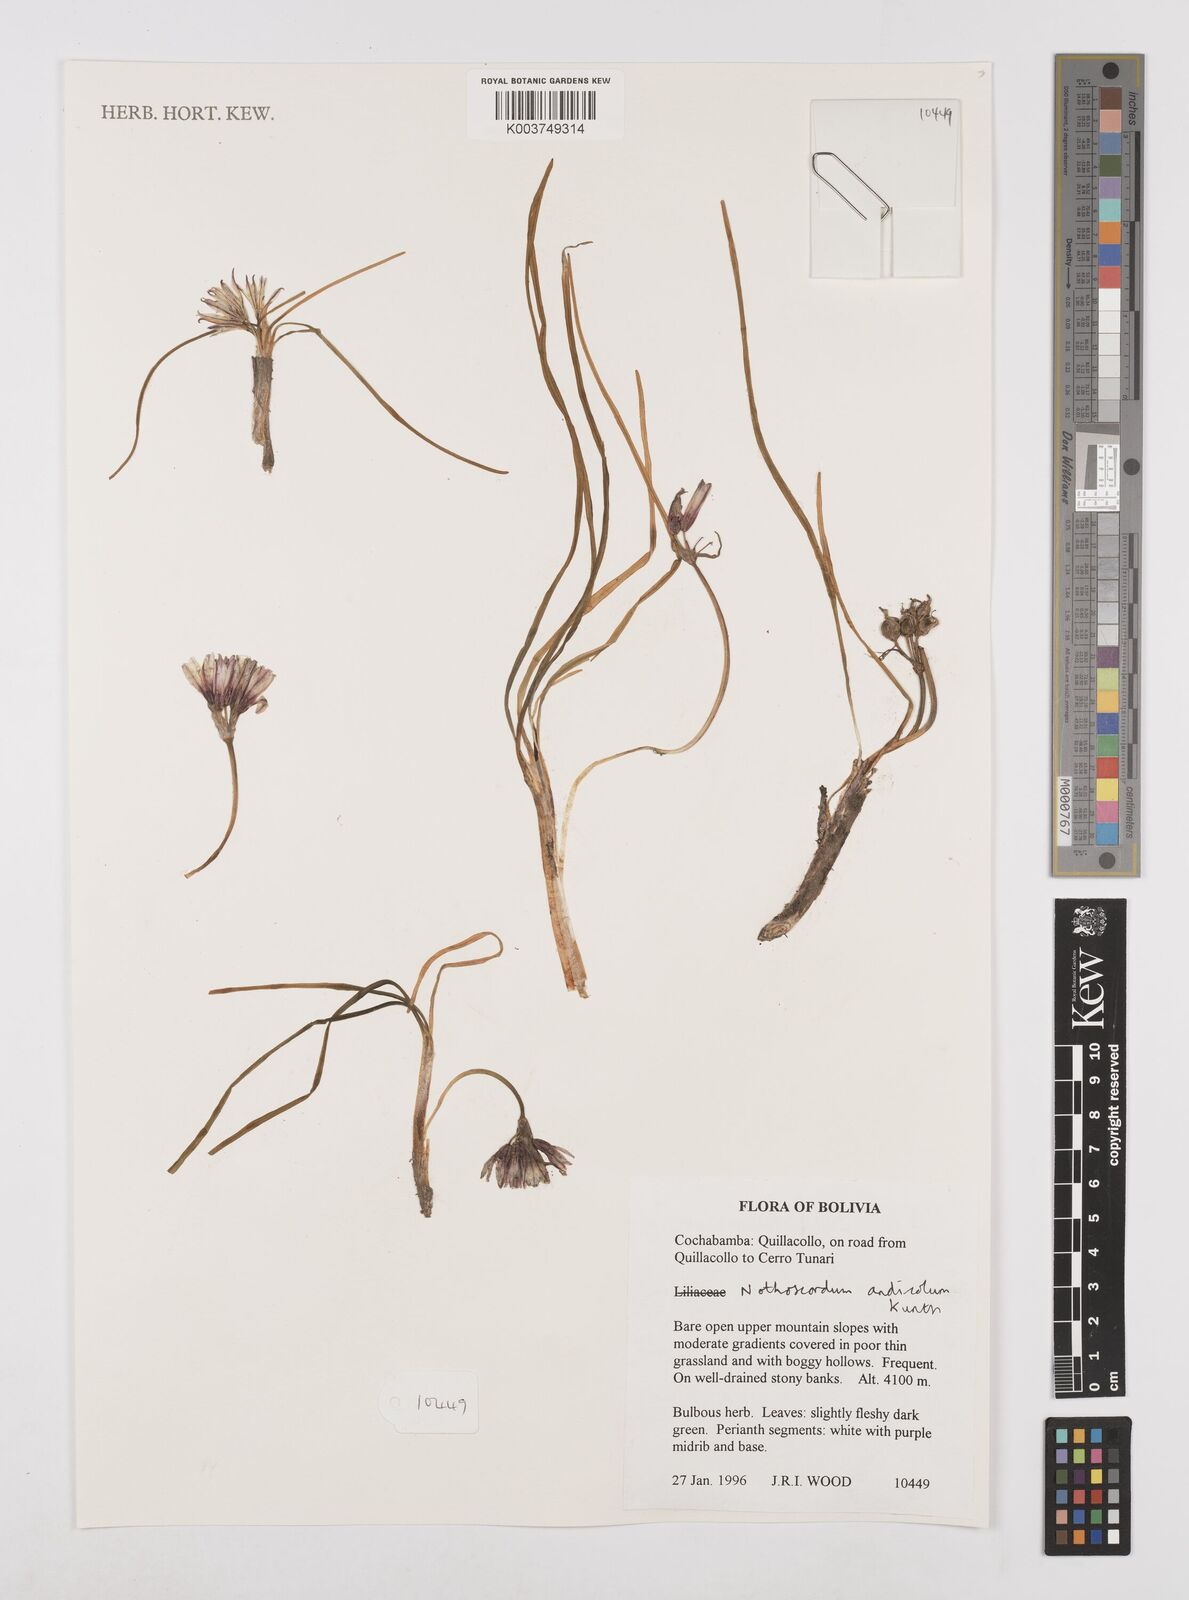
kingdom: Plantae
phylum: Tracheophyta
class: Liliopsida
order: Asparagales
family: Amaryllidaceae
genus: Nothoscordum
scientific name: Nothoscordum andicola
